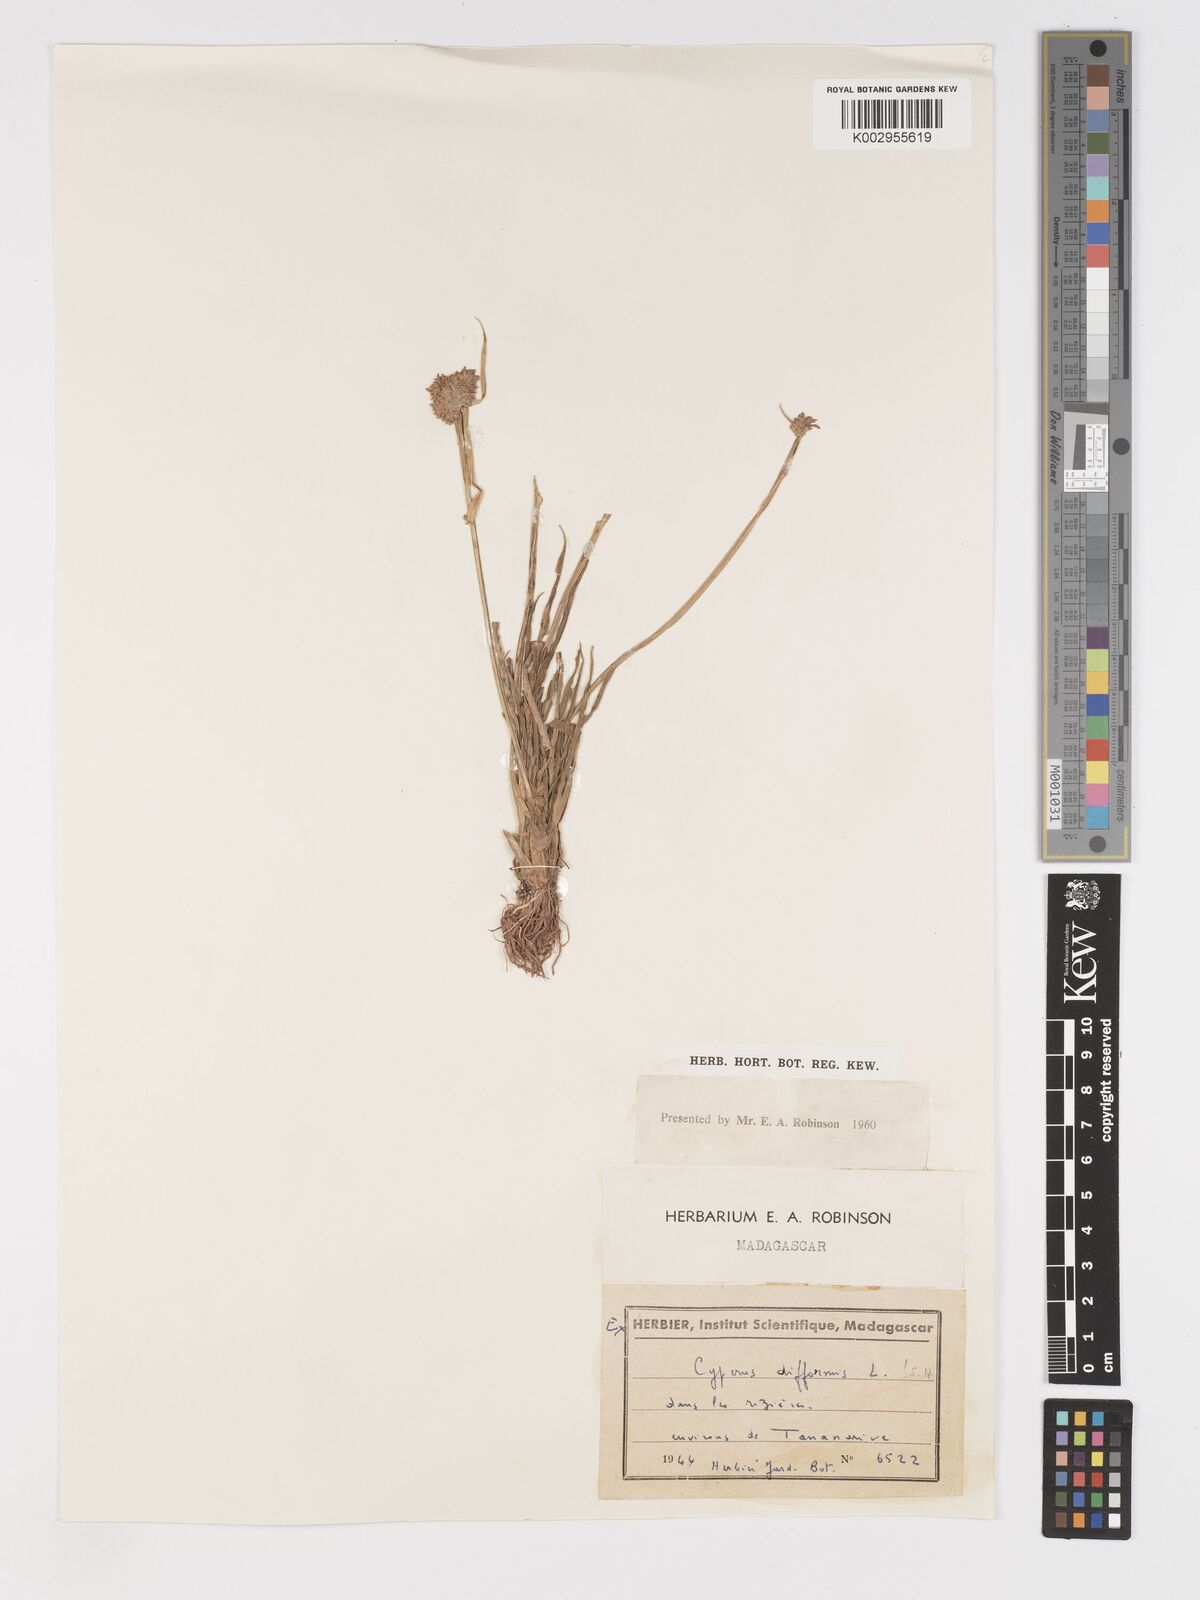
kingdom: Plantae
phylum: Tracheophyta
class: Liliopsida
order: Poales
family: Cyperaceae
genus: Cyperus
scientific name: Cyperus difformis
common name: Variable flatsedge
